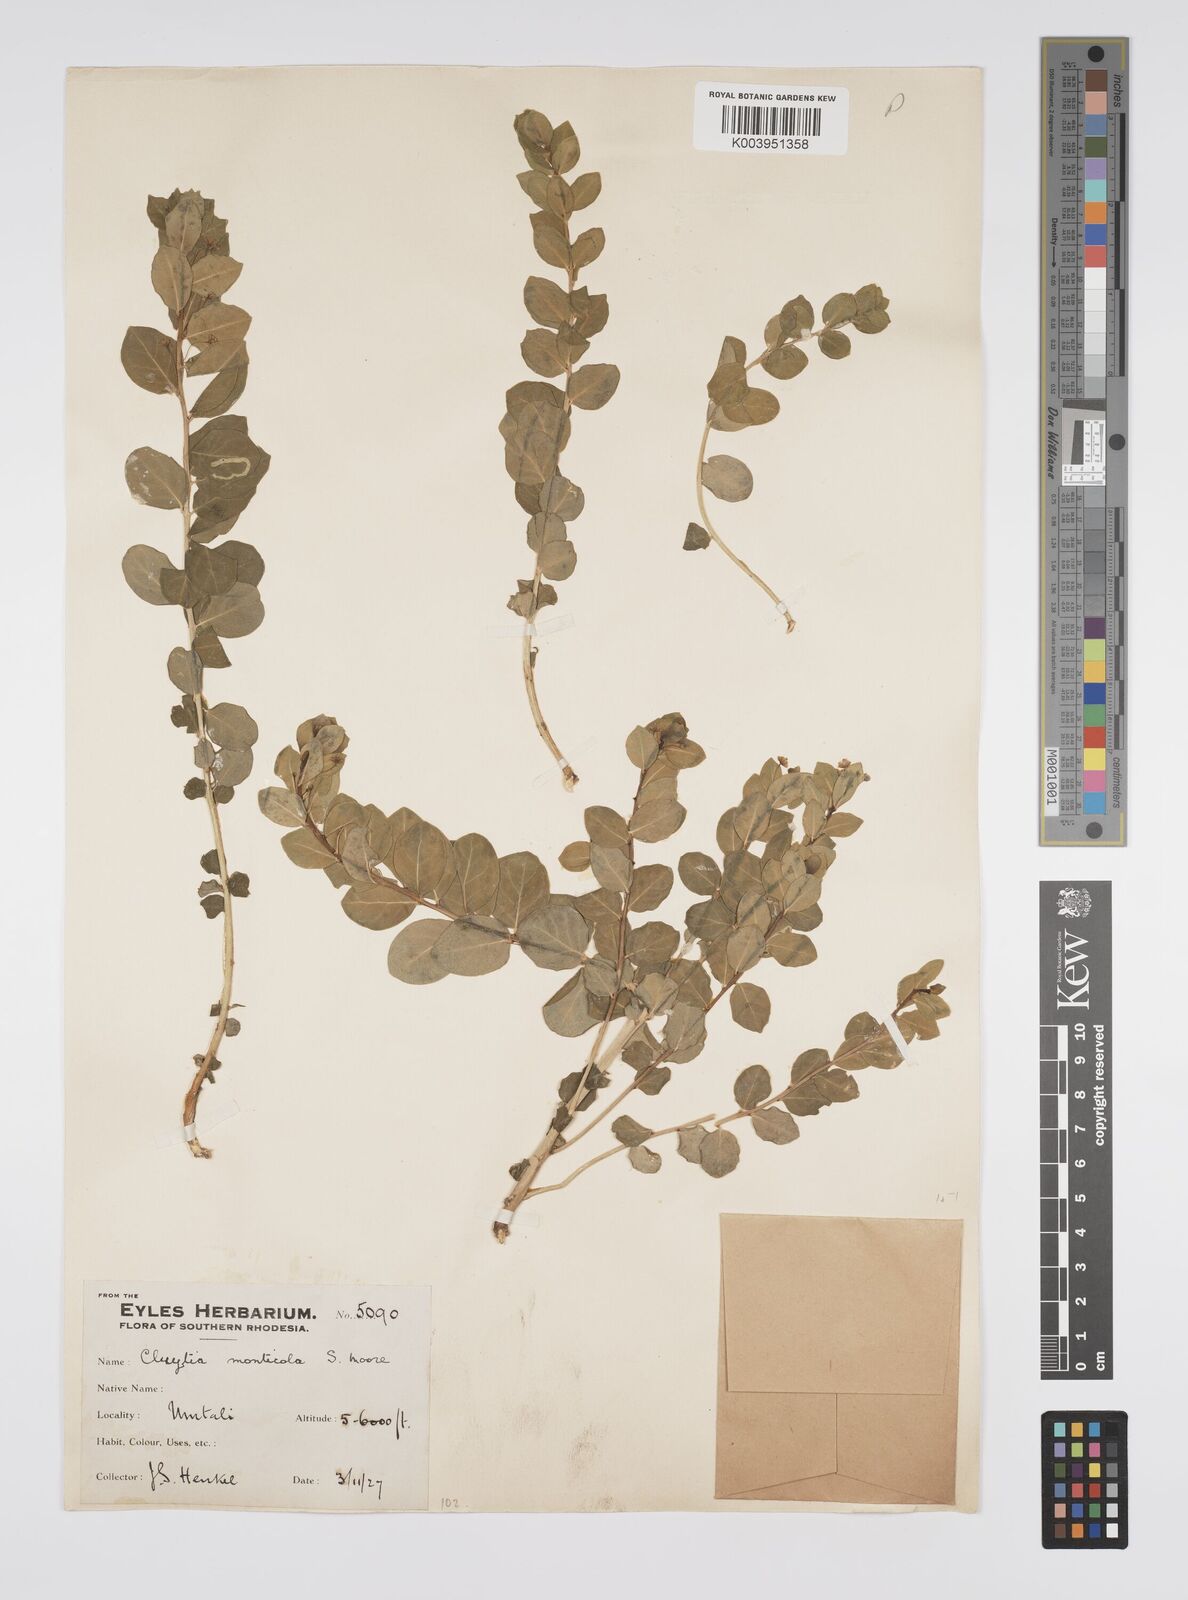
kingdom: Plantae
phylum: Tracheophyta
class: Magnoliopsida
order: Malpighiales
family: Peraceae
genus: Clutia
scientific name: Clutia monticola
